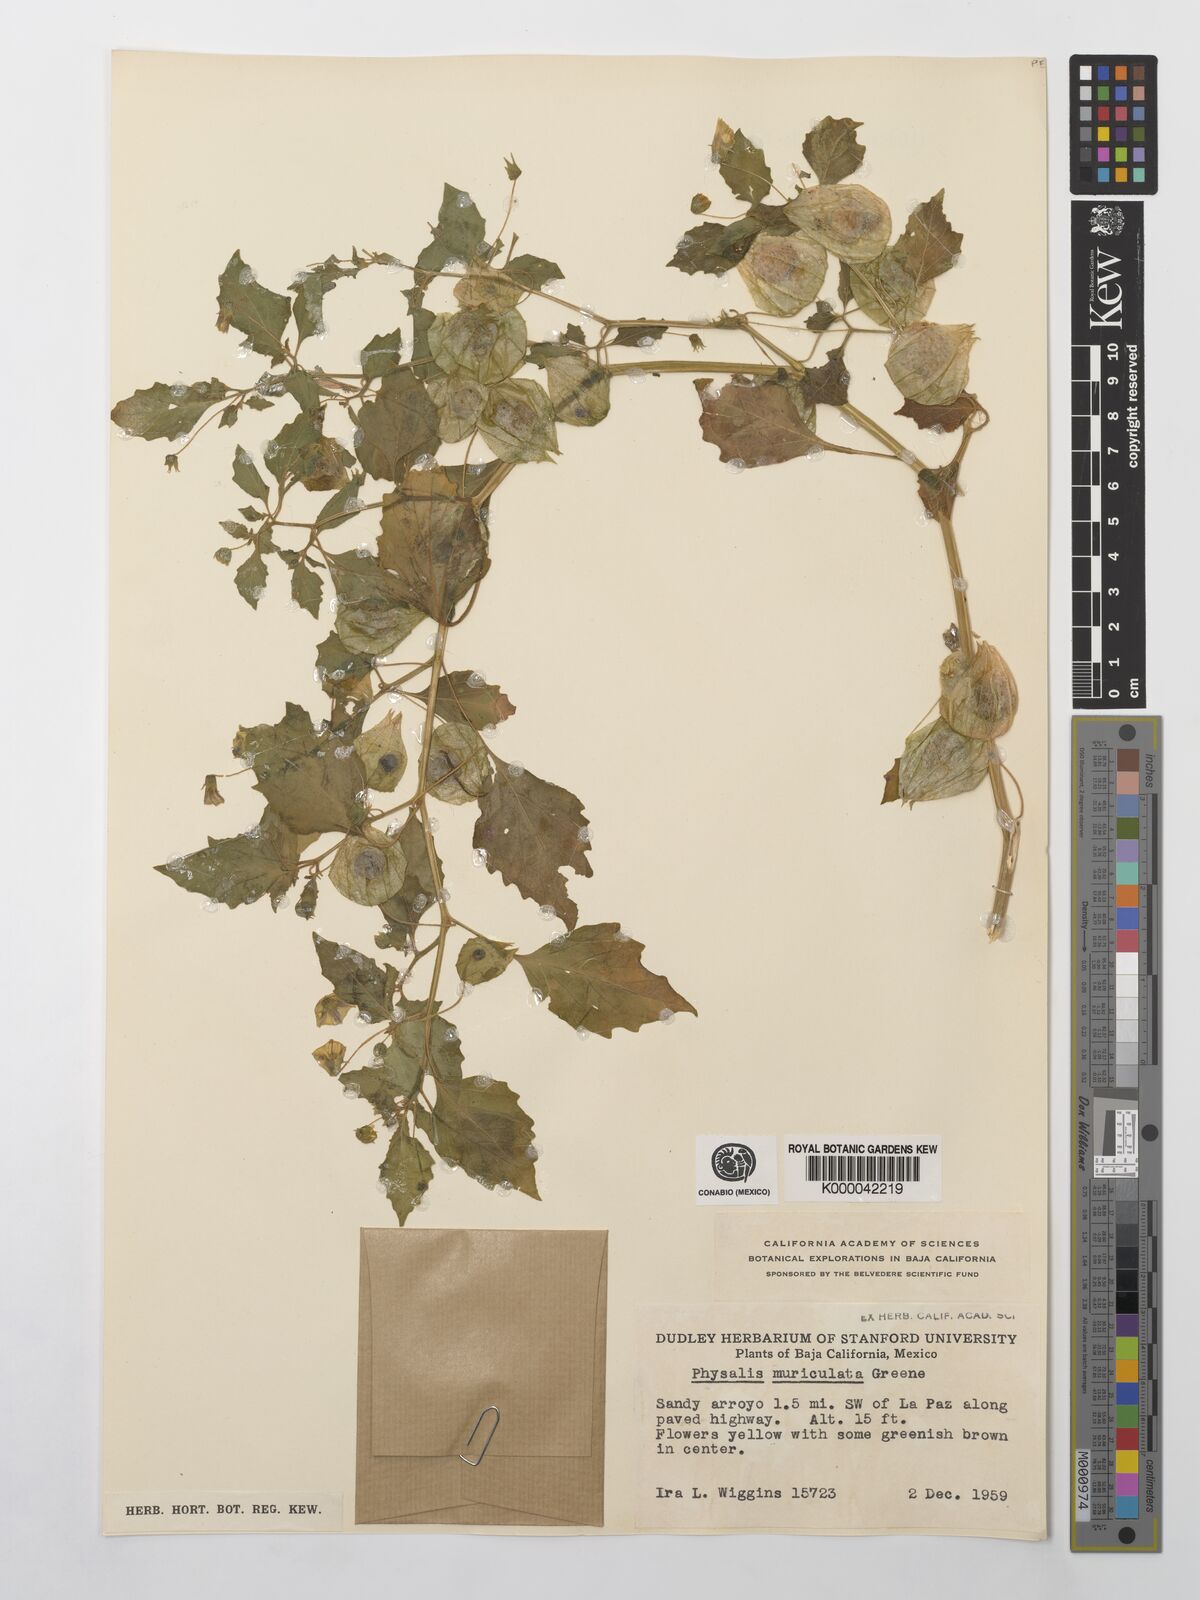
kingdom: Plantae
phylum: Tracheophyta
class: Magnoliopsida
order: Solanales
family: Solanaceae
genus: Physalis
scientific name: Physalis crassifolia
